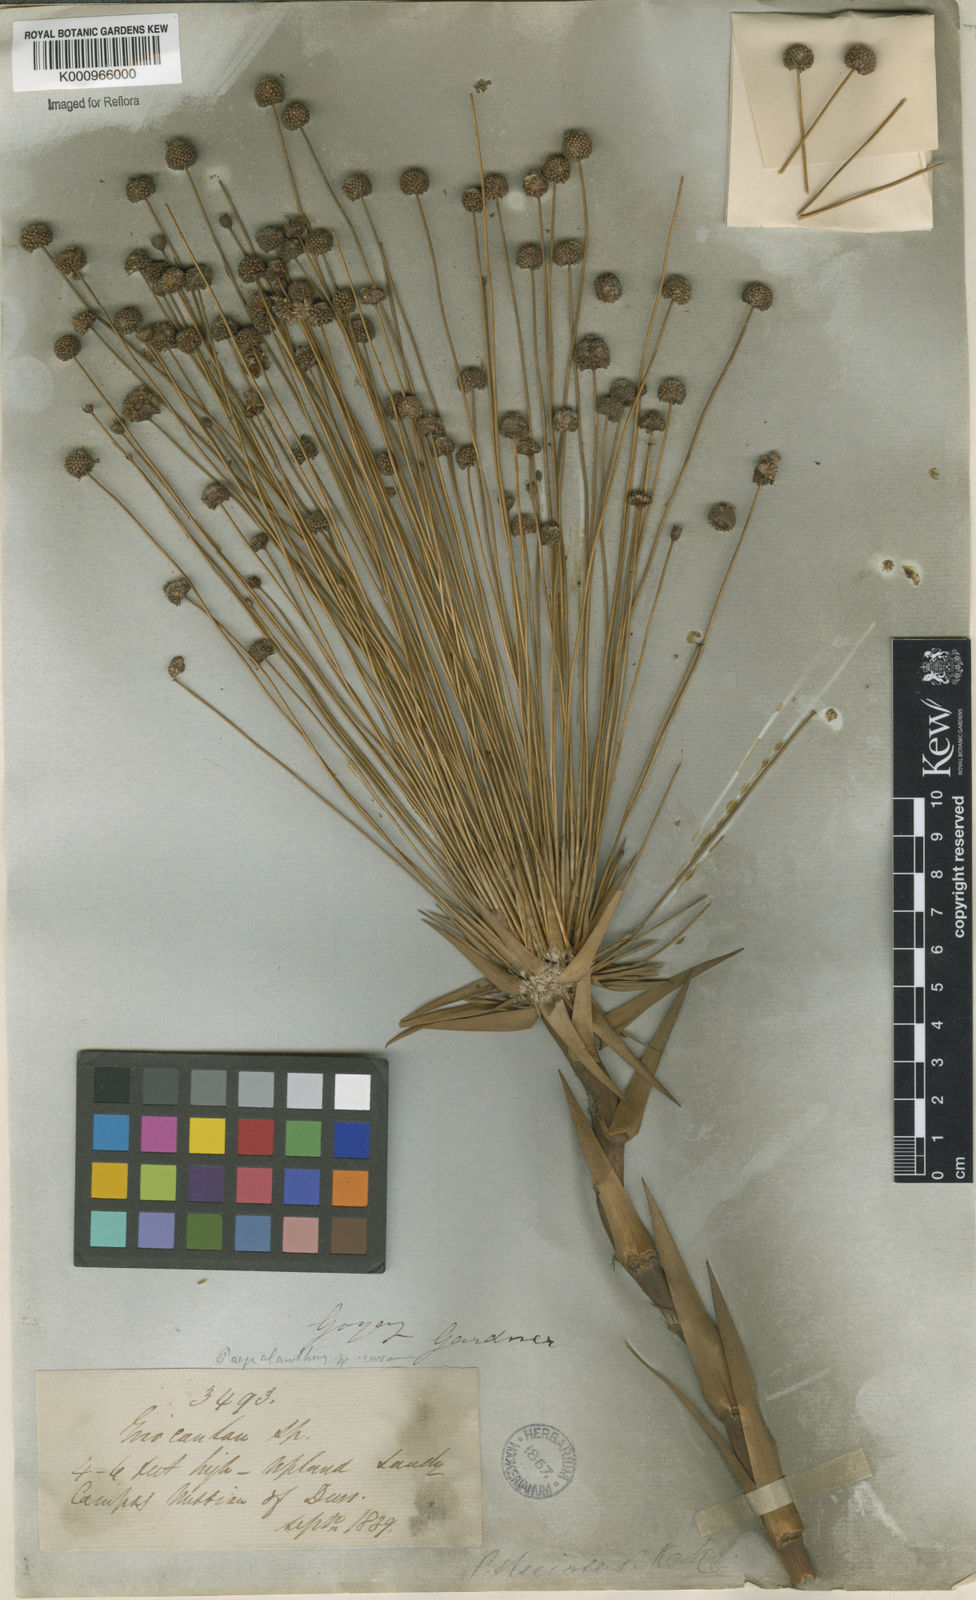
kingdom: Plantae
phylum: Tracheophyta
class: Liliopsida
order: Poales
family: Eriocaulaceae
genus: Paepalanthus
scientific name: Paepalanthus
